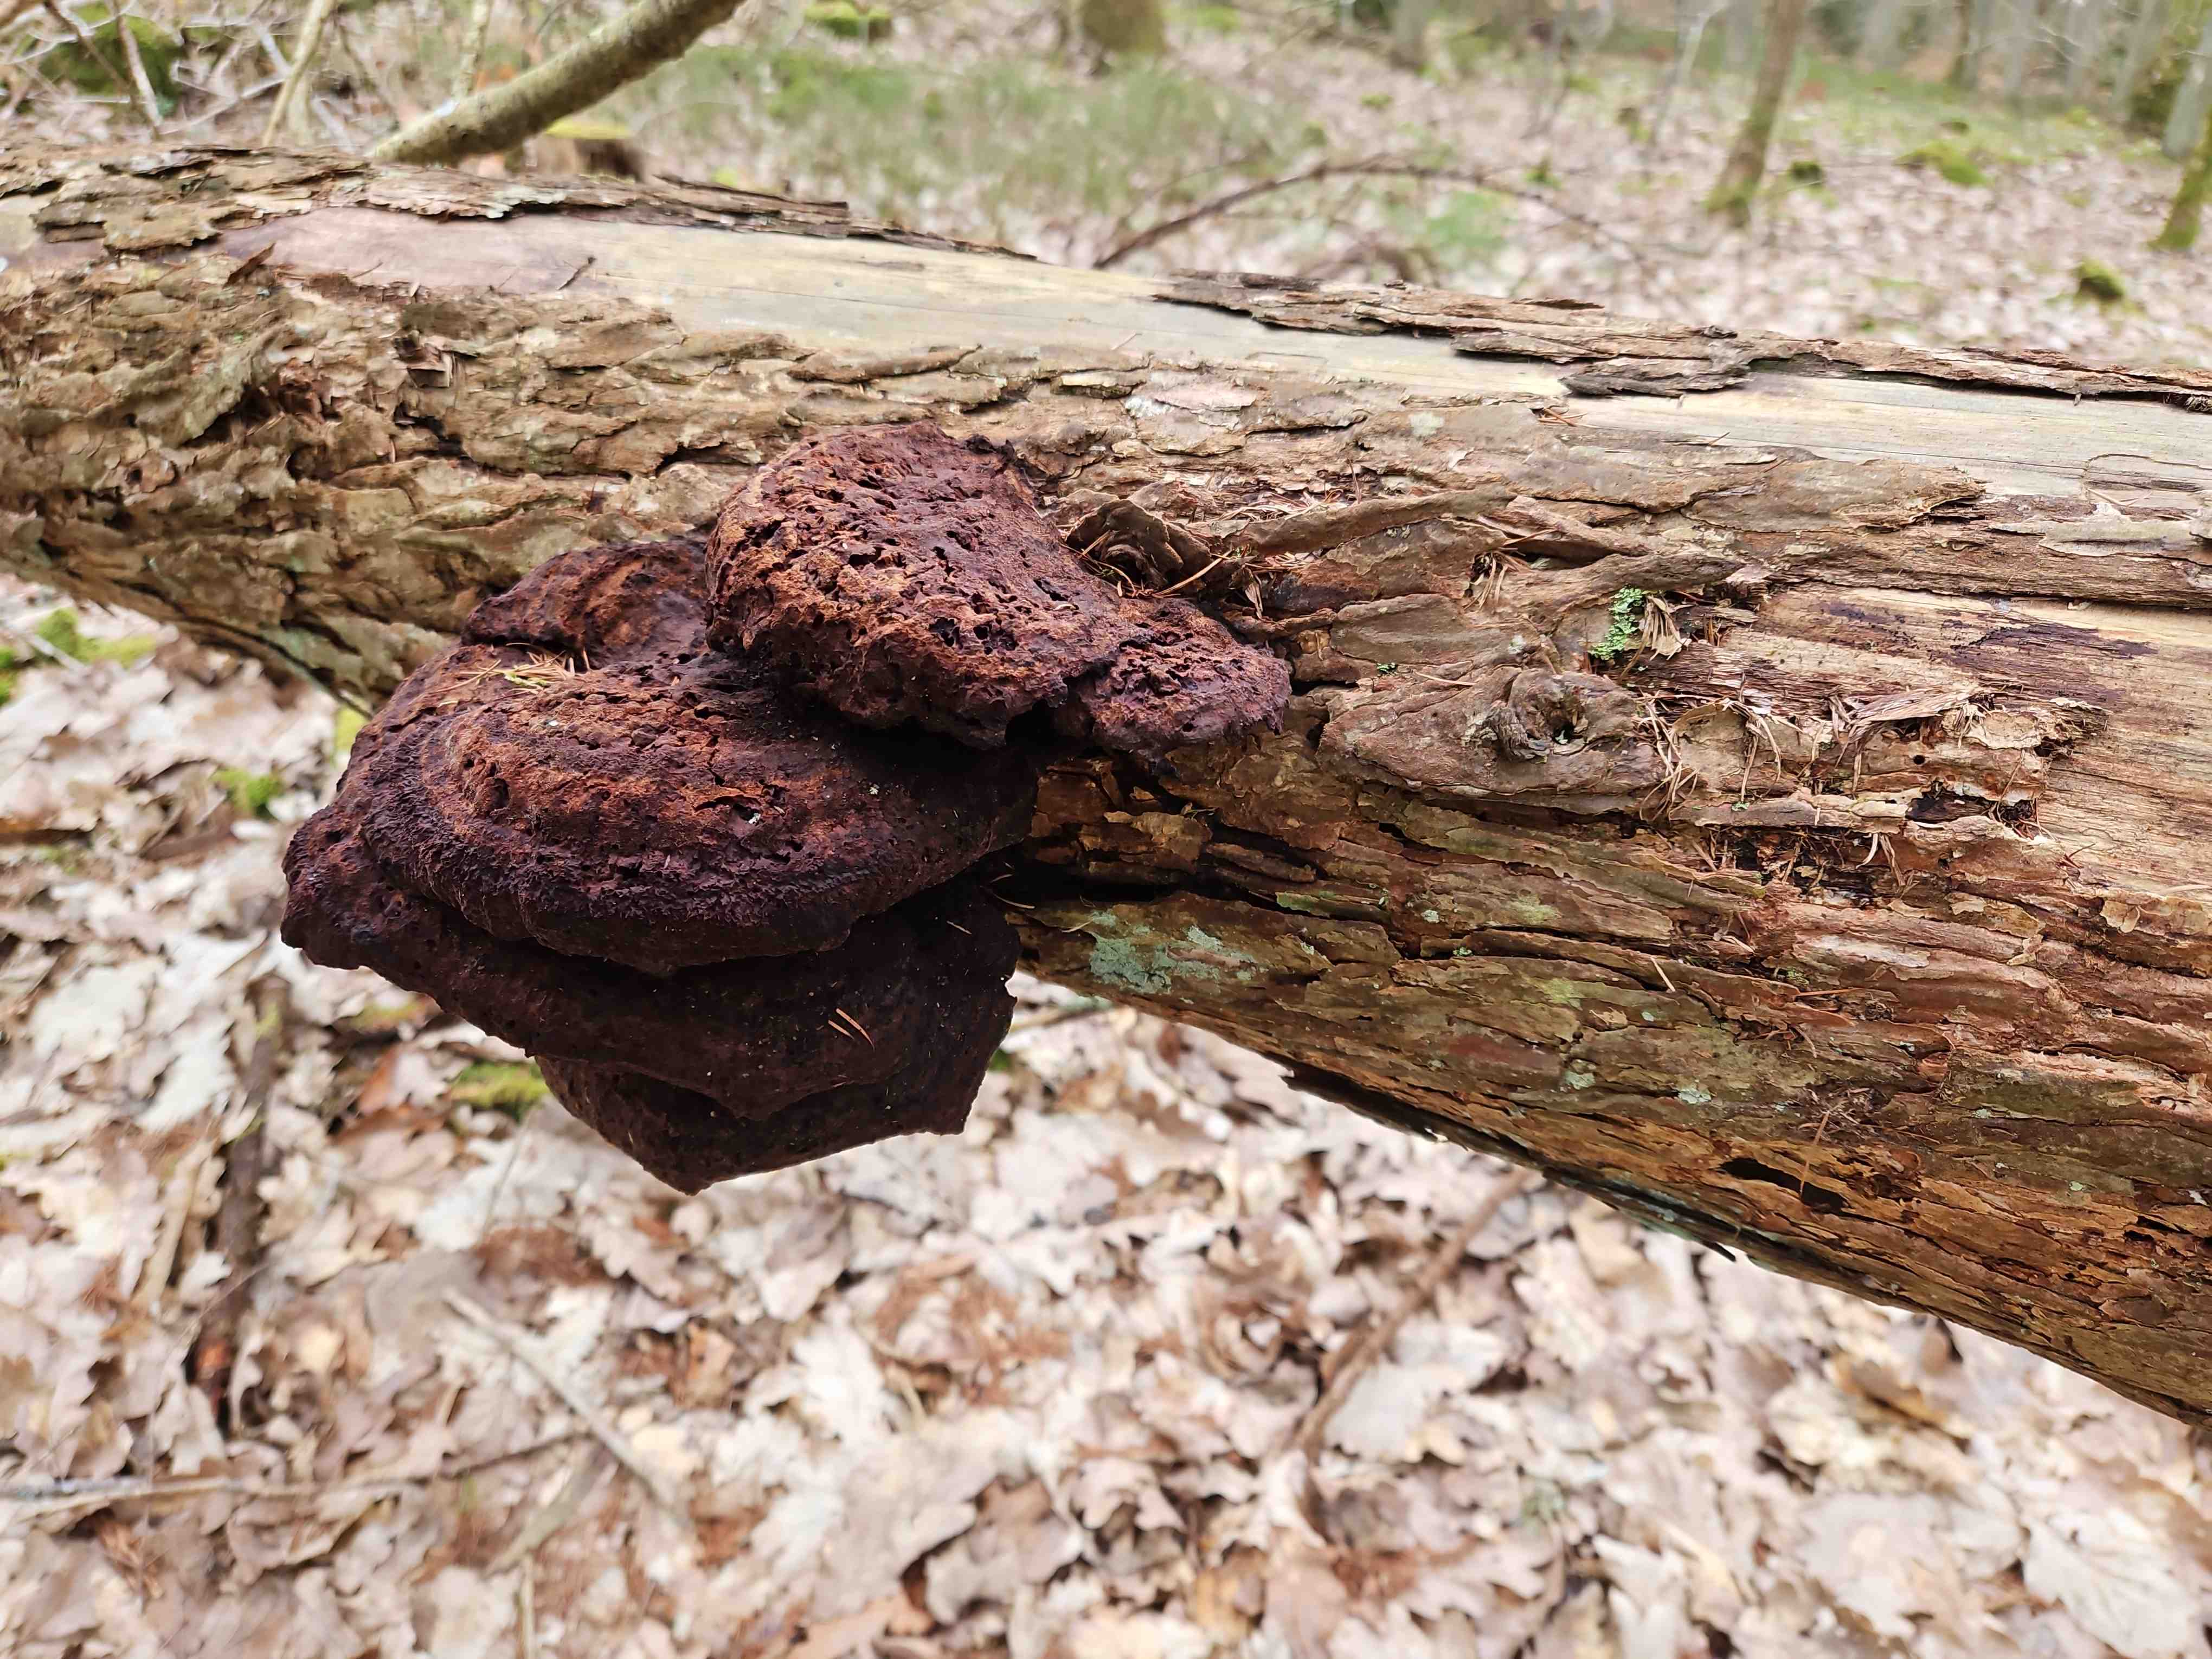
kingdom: Fungi
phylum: Basidiomycota
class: Agaricomycetes
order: Polyporales
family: Laetiporaceae
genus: Phaeolus
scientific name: Phaeolus schweinitzii
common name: brunporesvamp
